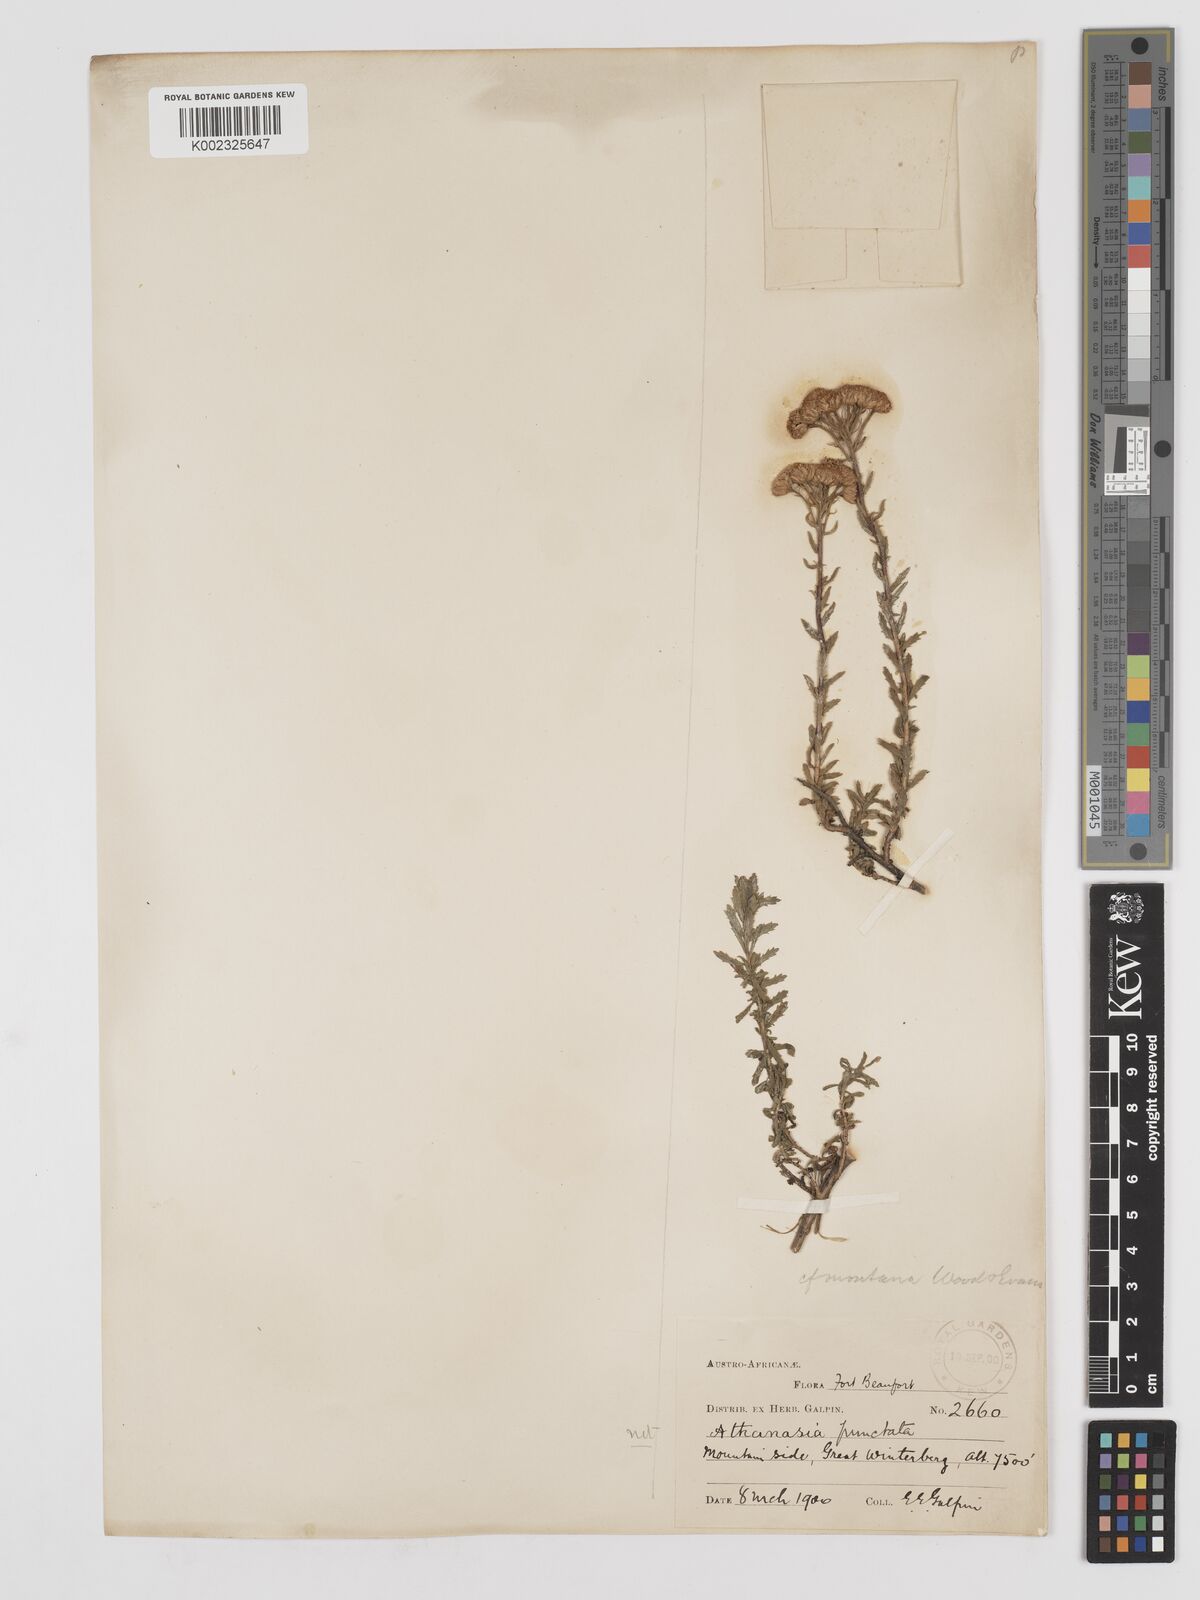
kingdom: Plantae
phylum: Tracheophyta
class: Magnoliopsida
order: Asterales
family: Asteraceae
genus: Inulanthera
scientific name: Inulanthera montana
